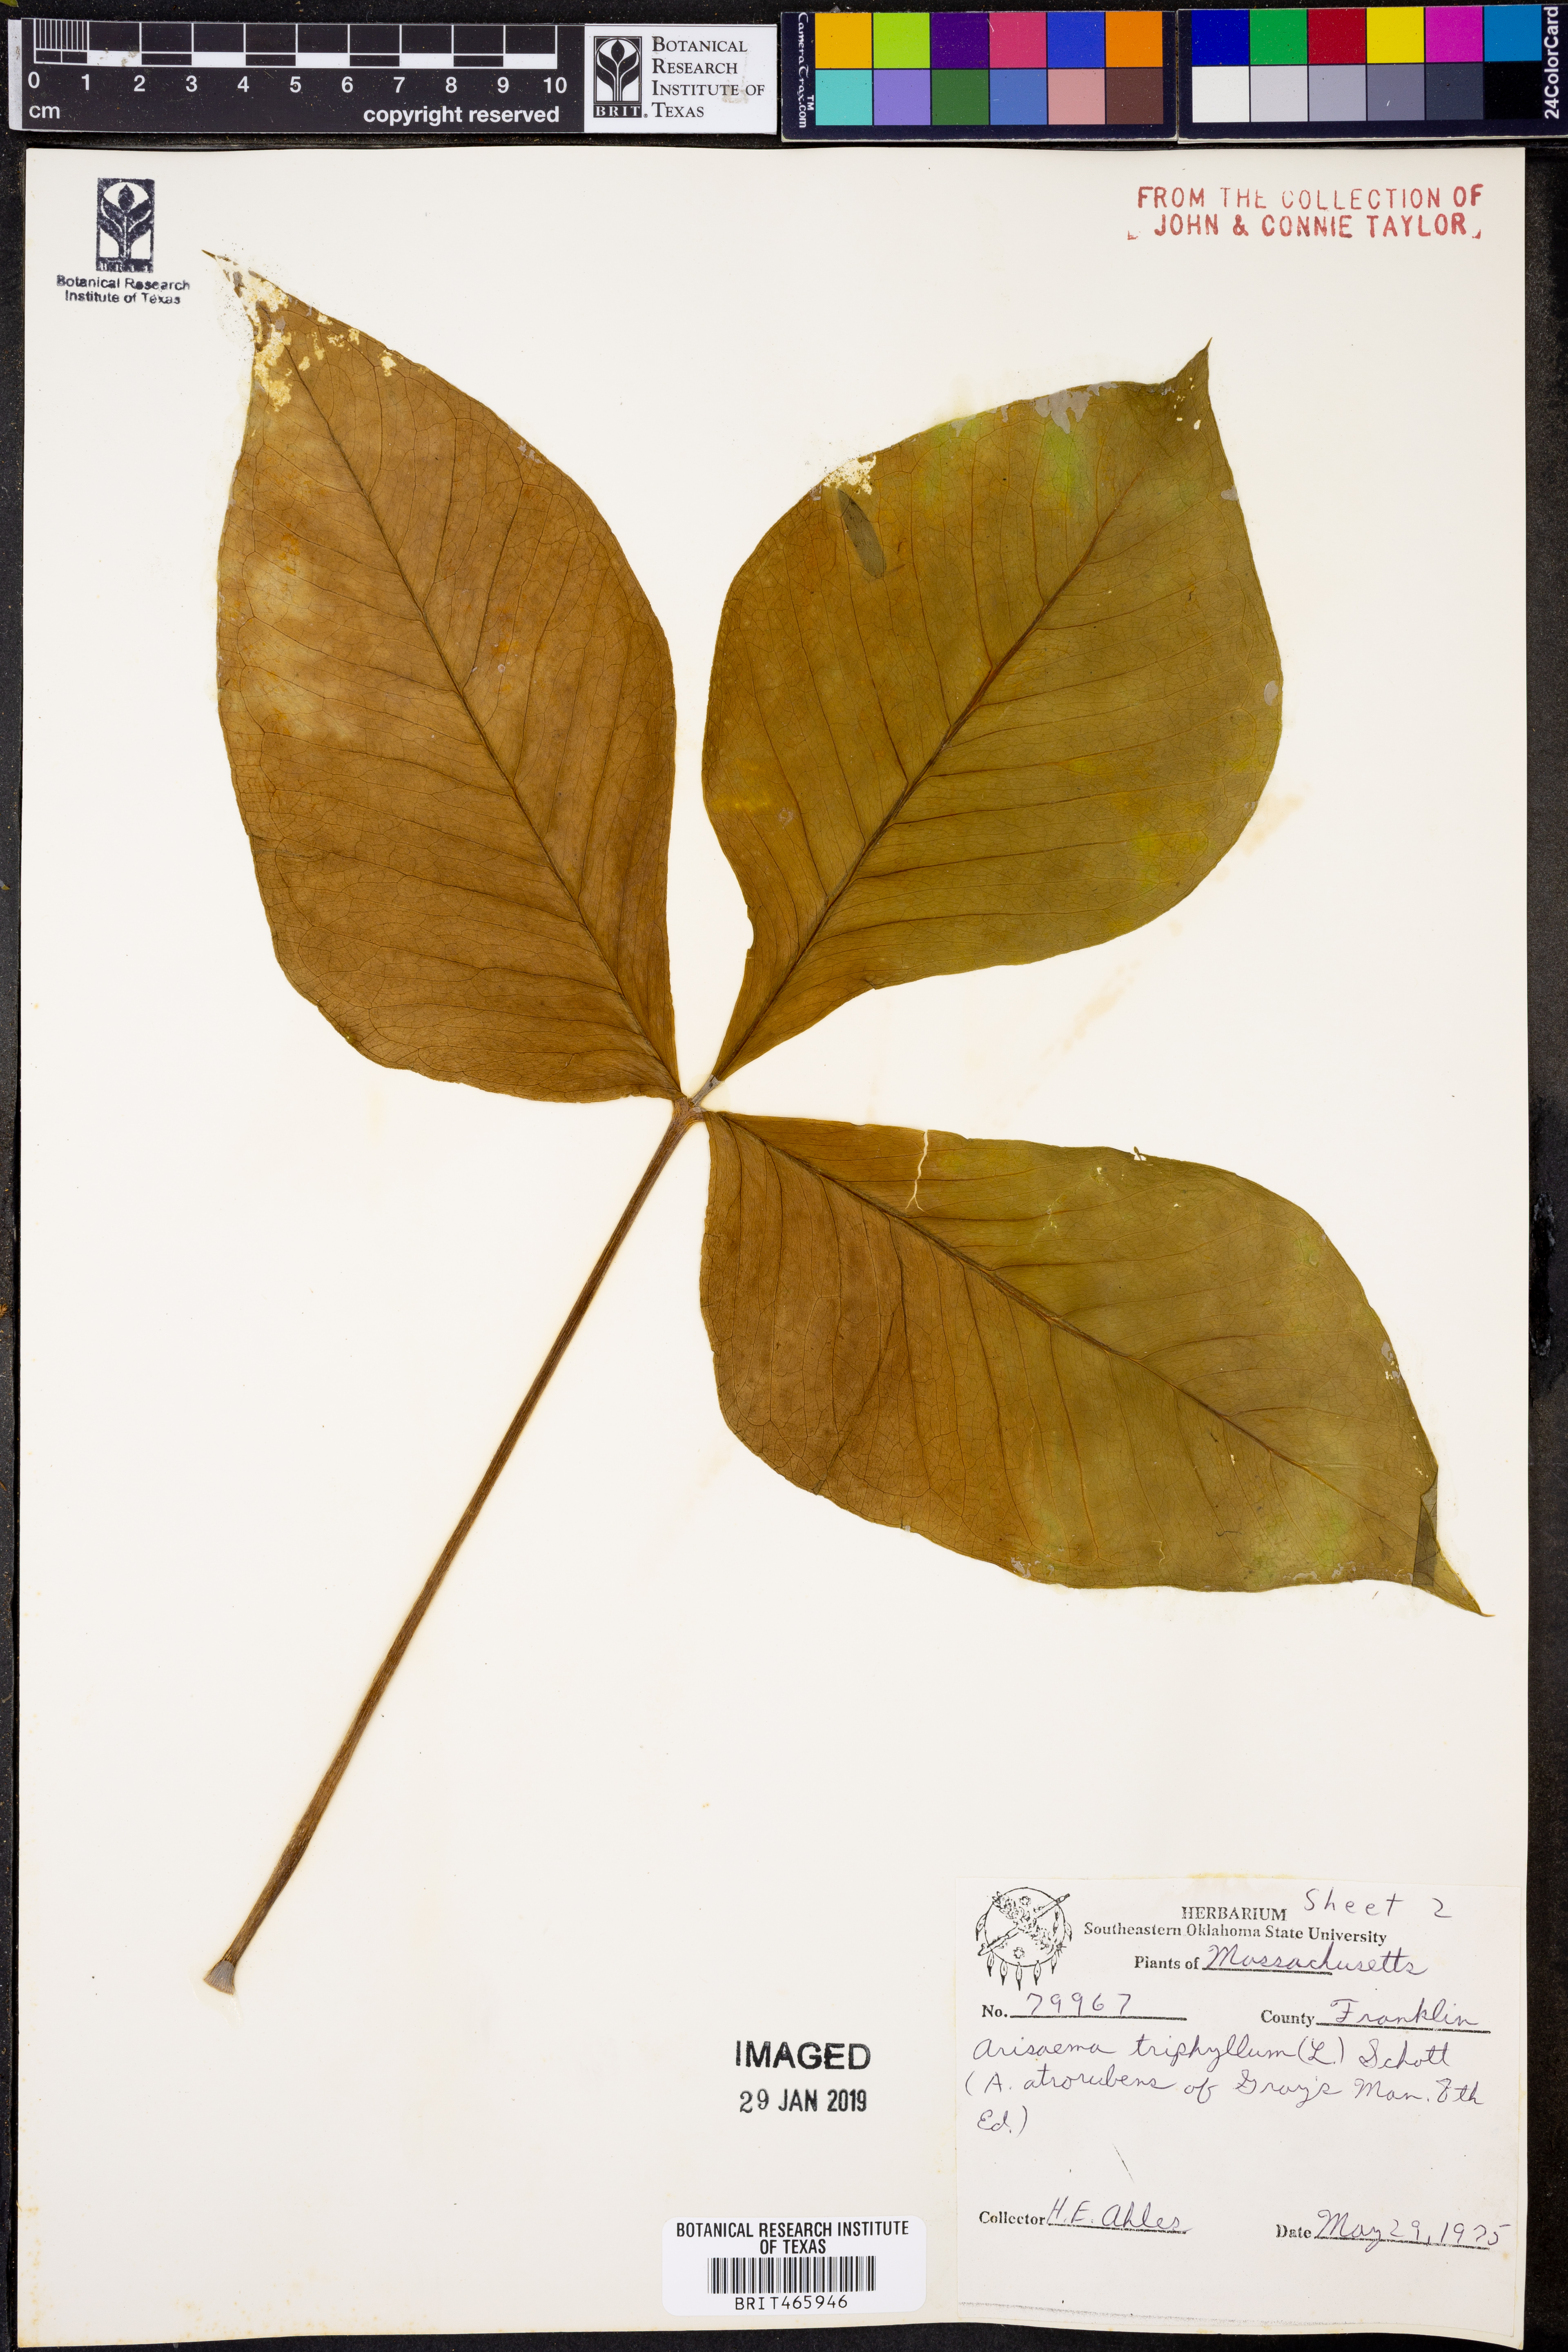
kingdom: Plantae
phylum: Tracheophyta
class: Liliopsida
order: Alismatales
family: Araceae
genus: Arisaema
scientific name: Arisaema triphyllum
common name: Jack-in-the-pulpit
